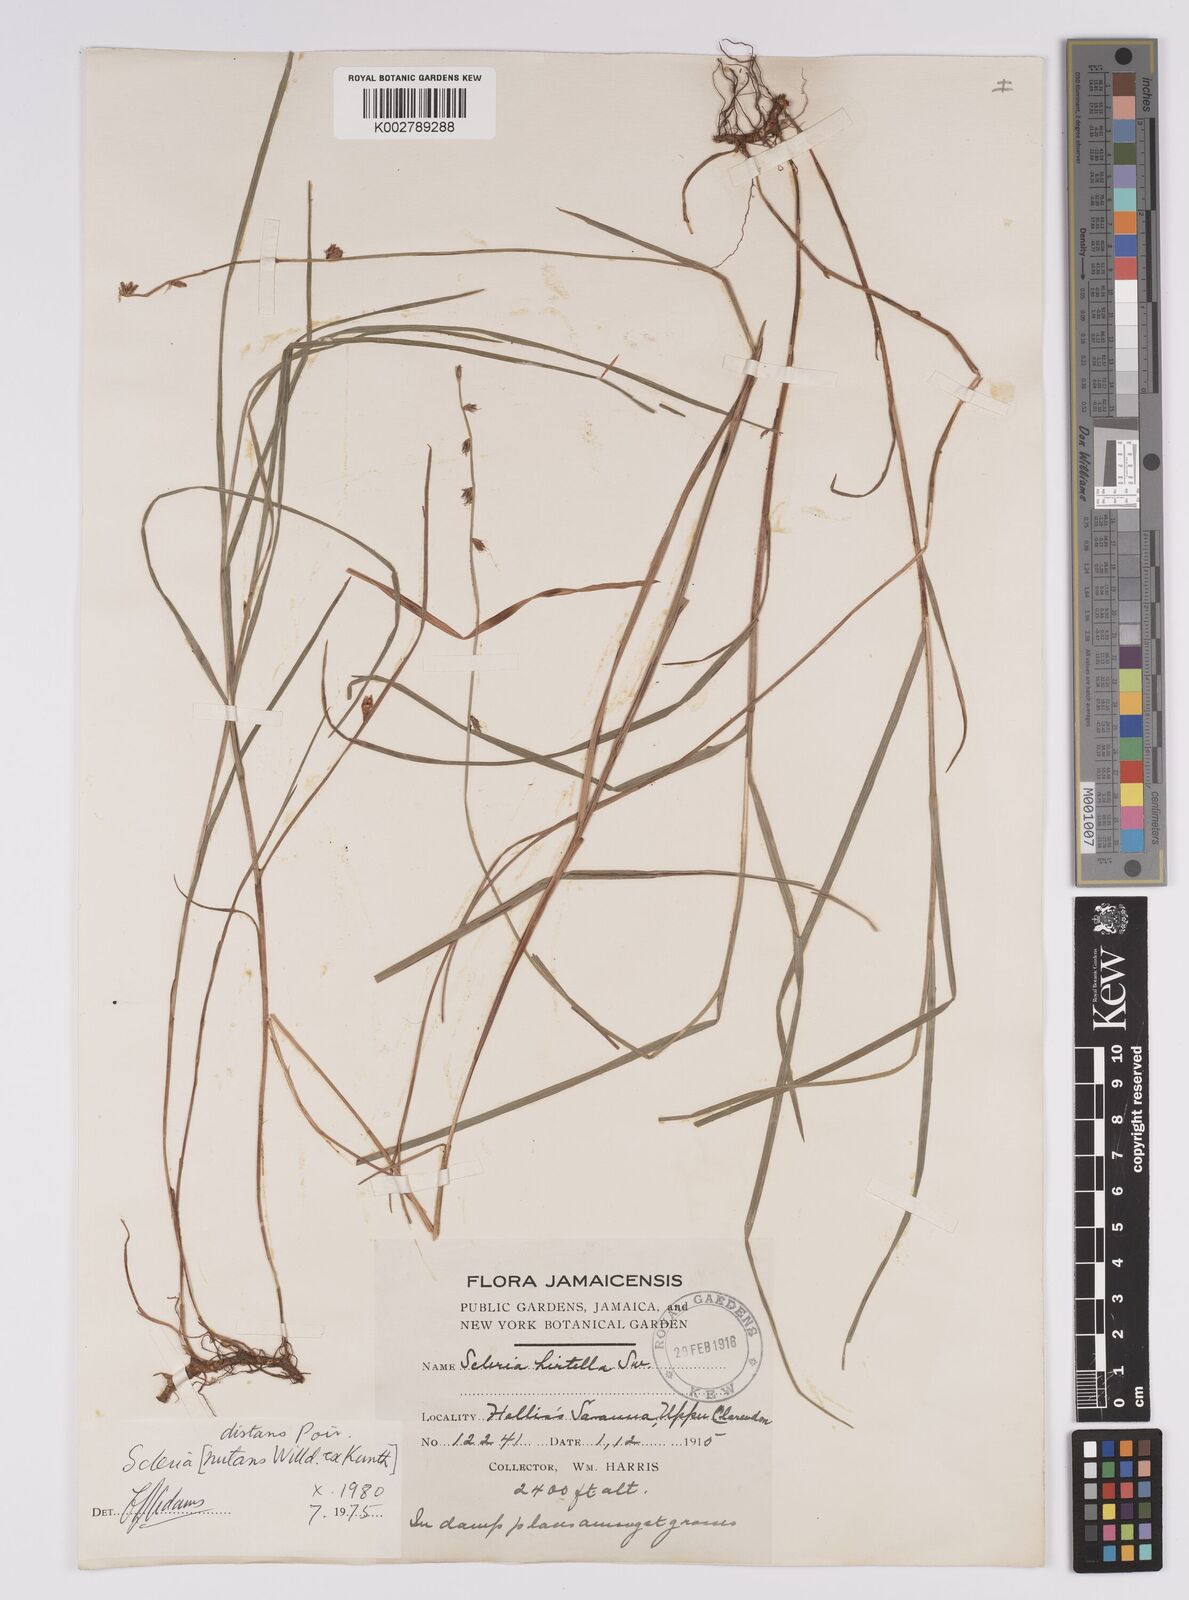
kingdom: Plantae
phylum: Tracheophyta
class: Liliopsida
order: Poales
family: Cyperaceae
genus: Scleria
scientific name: Scleria distans
